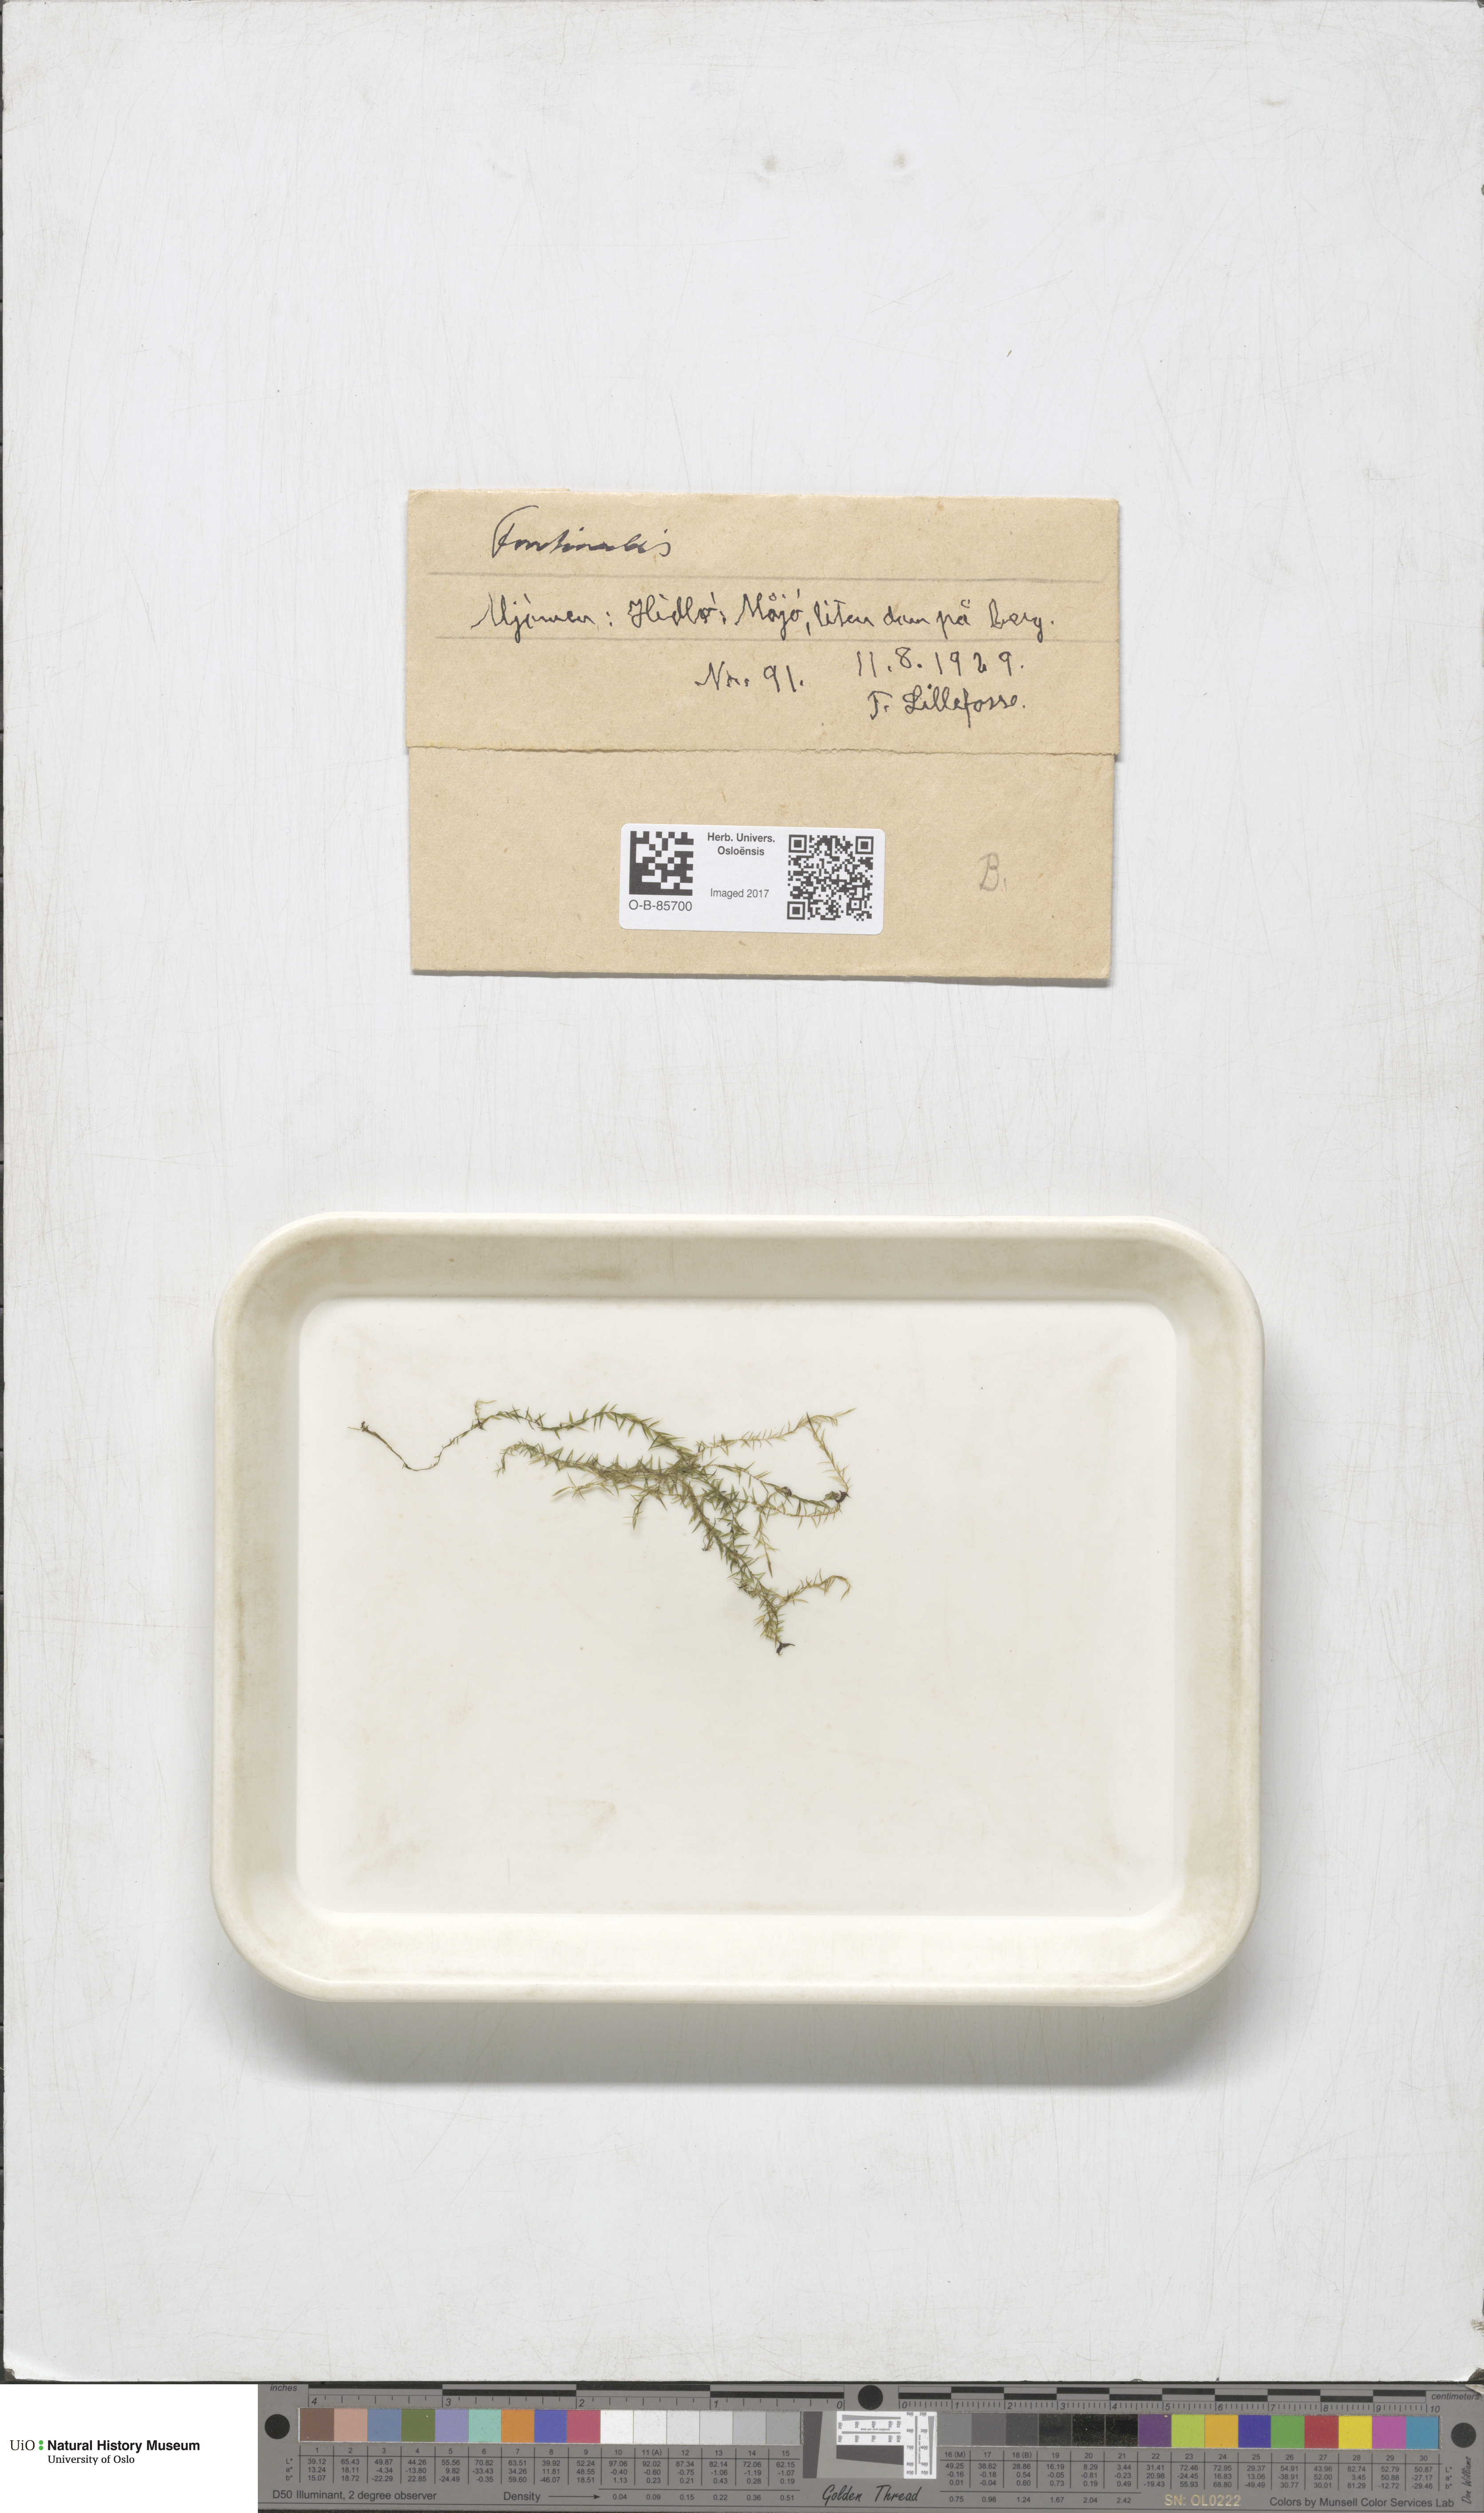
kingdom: Plantae
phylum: Bryophyta
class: Bryopsida
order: Hypnales
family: Fontinalaceae
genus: Fontinalis
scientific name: Fontinalis
